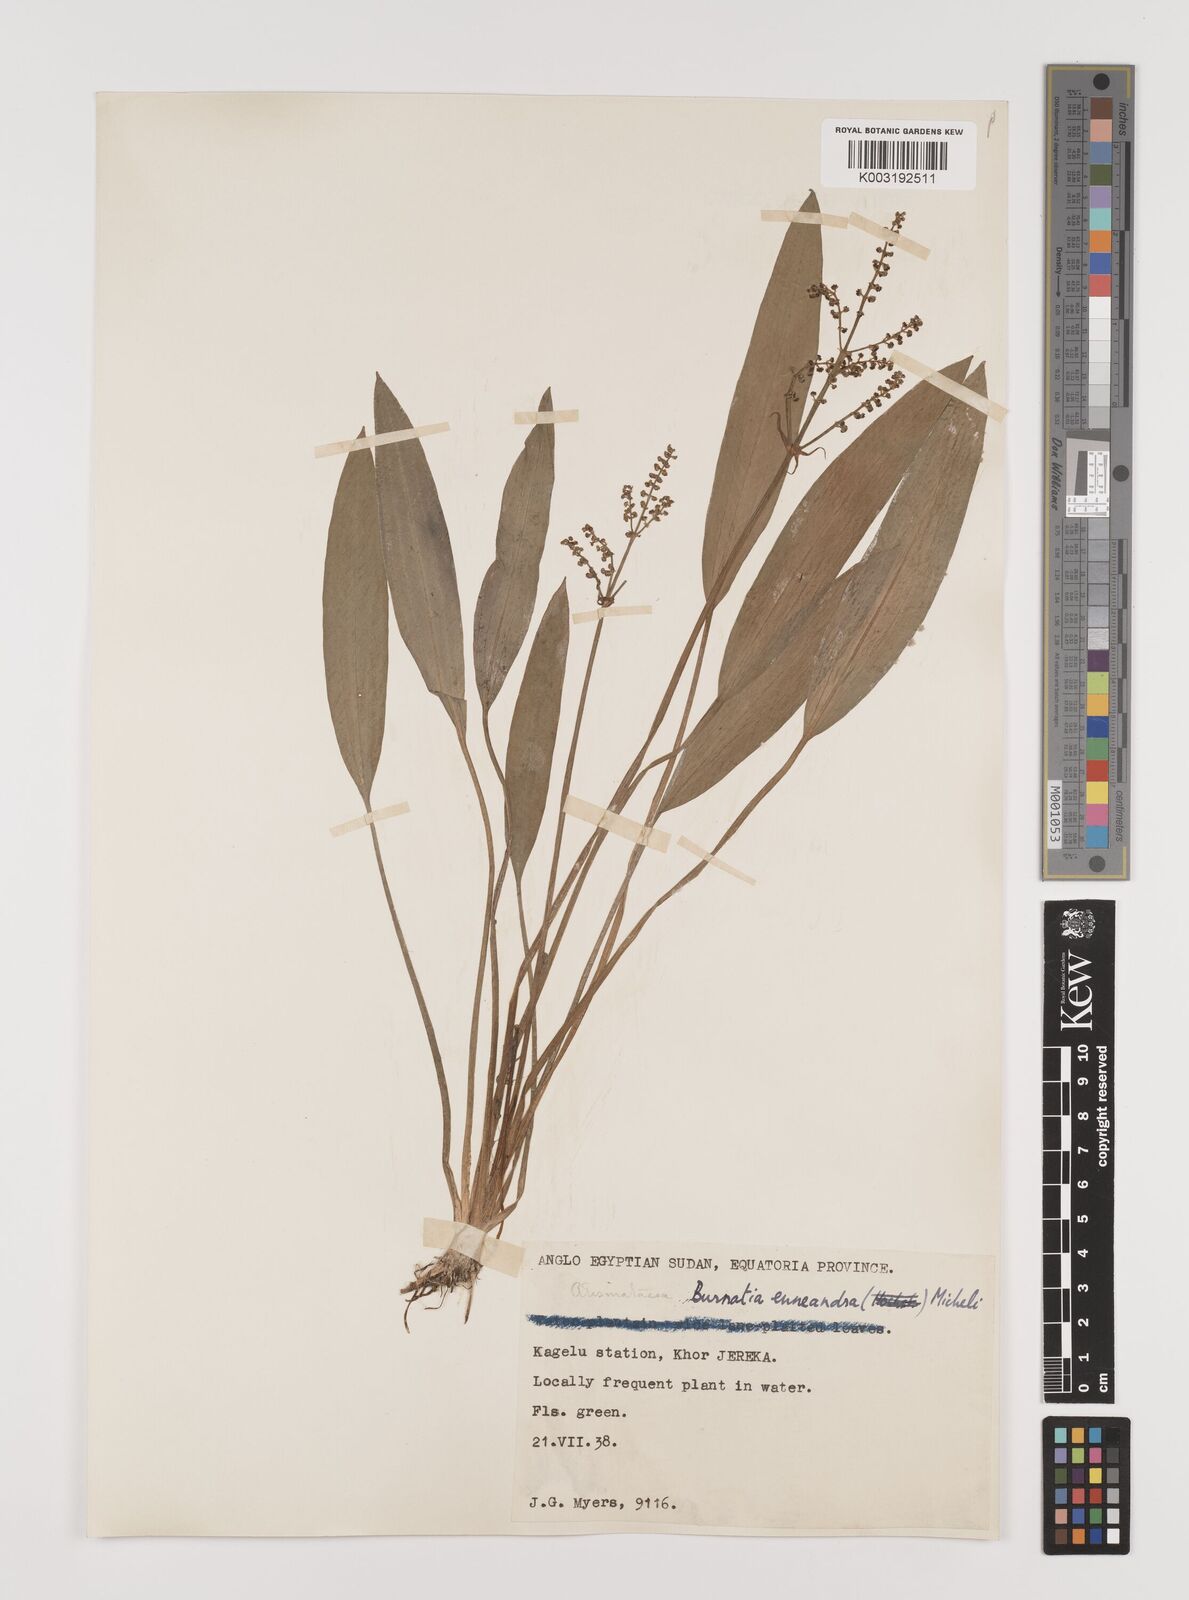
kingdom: Plantae
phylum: Tracheophyta
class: Liliopsida
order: Alismatales
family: Alismataceae
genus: Burnatia
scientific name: Burnatia enneandra
